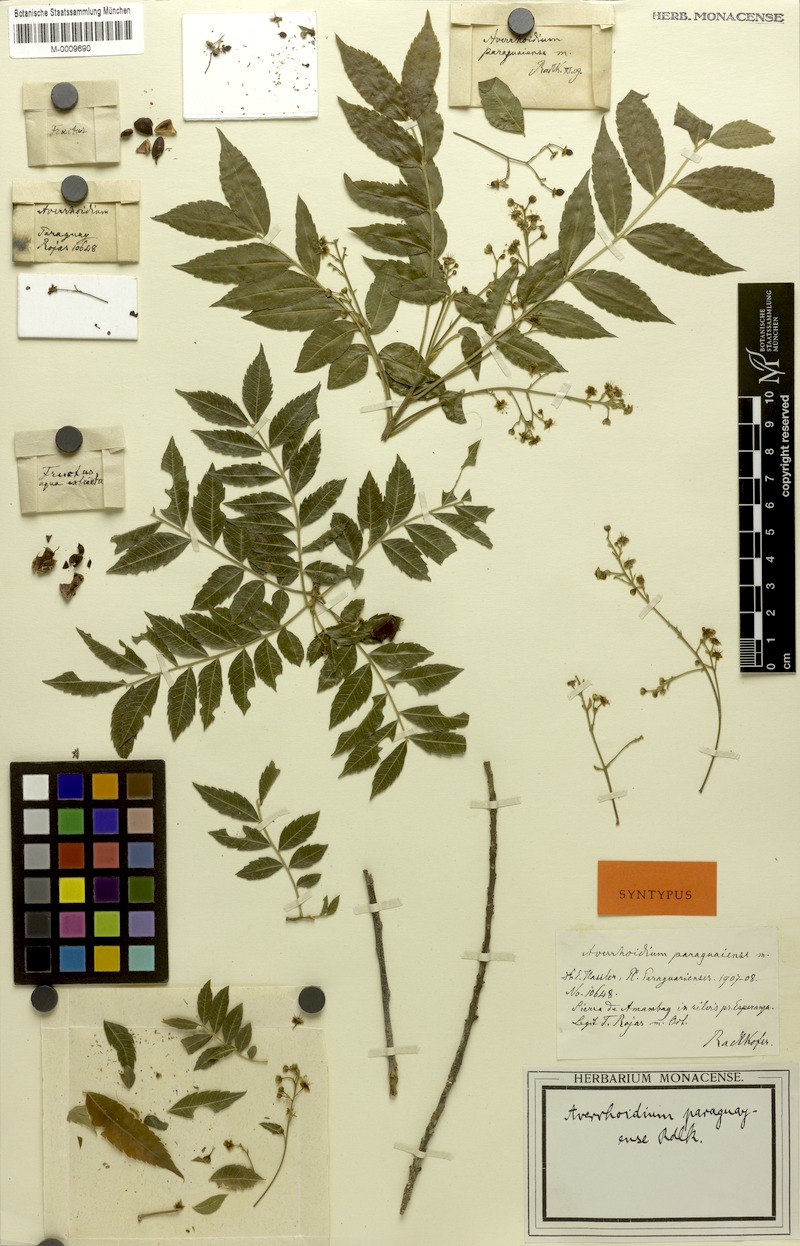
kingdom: Plantae
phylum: Tracheophyta
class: Magnoliopsida
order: Sapindales
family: Sapindaceae
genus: Averrhoidium
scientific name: Averrhoidium paraguaiense
